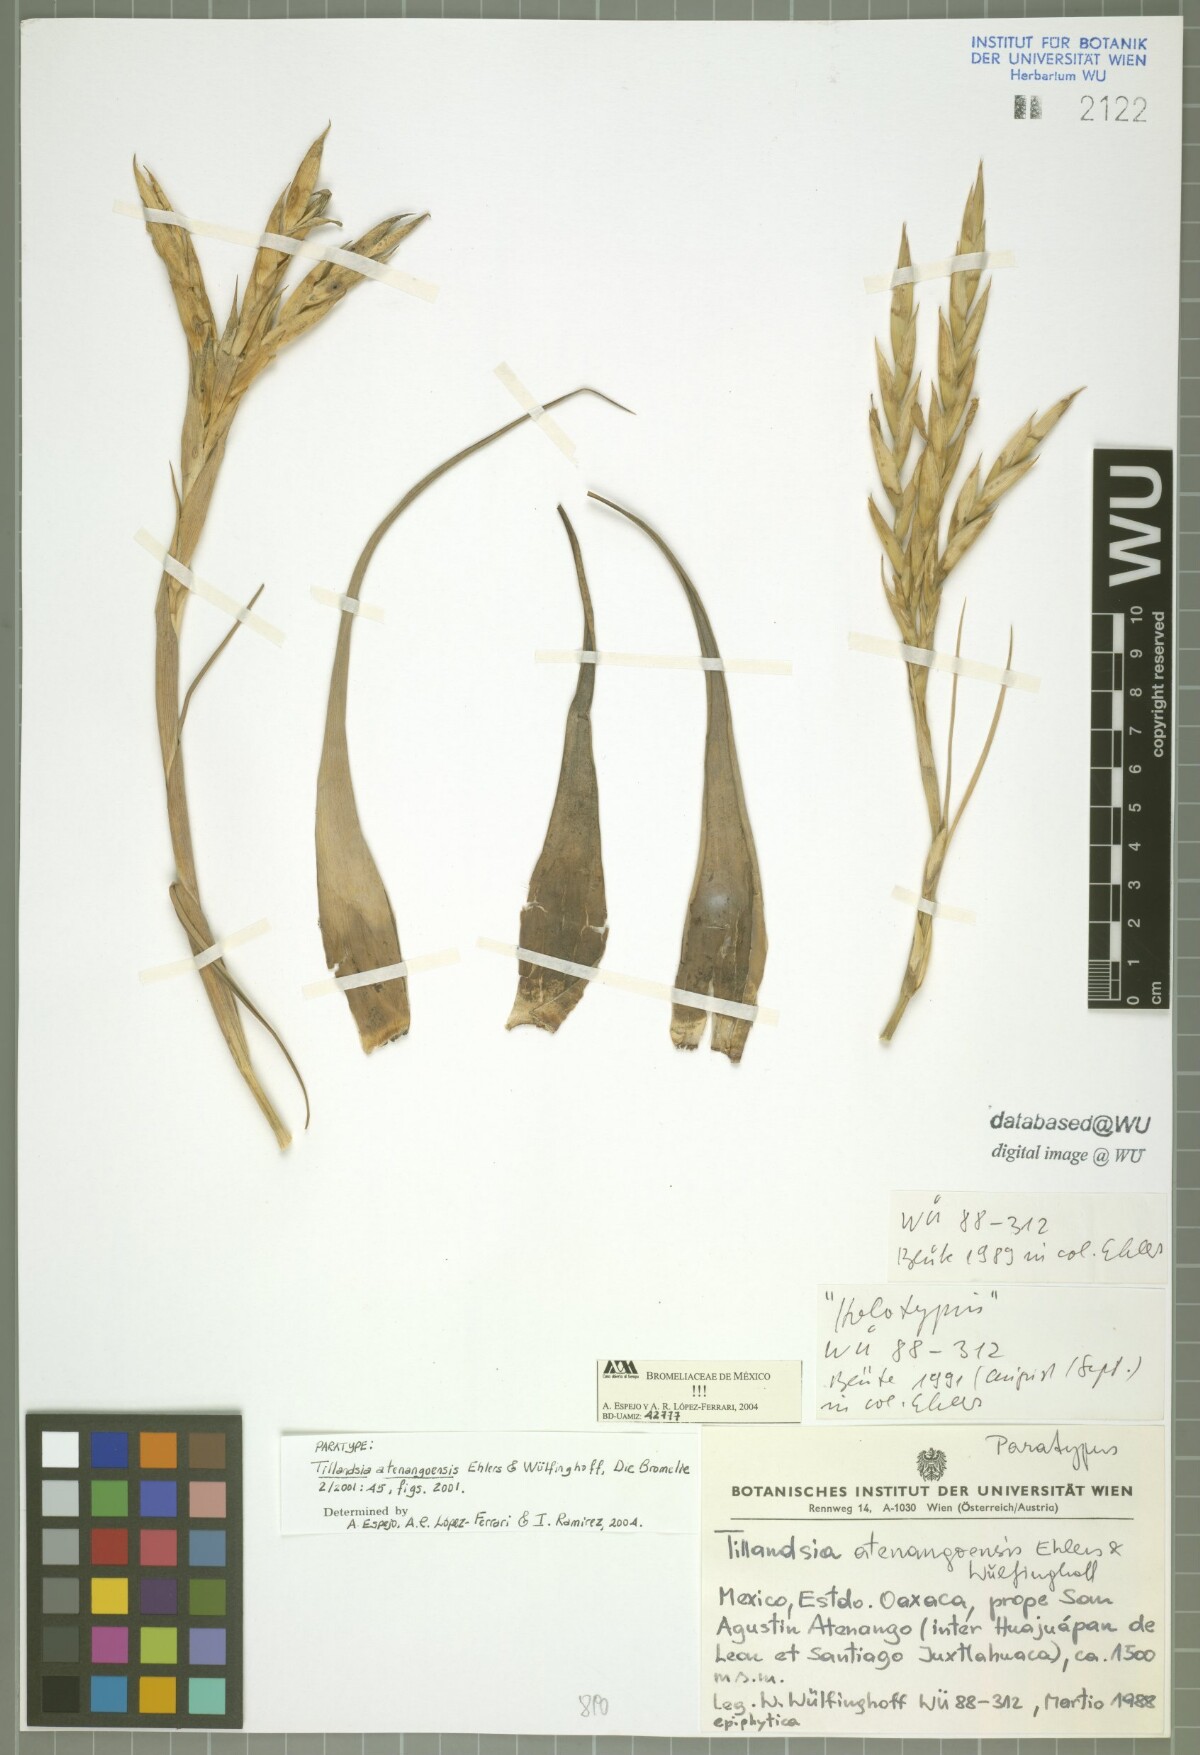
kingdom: Plantae
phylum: Tracheophyta
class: Liliopsida
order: Poales
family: Bromeliaceae
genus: Tillandsia
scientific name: Tillandsia atenangoensis
